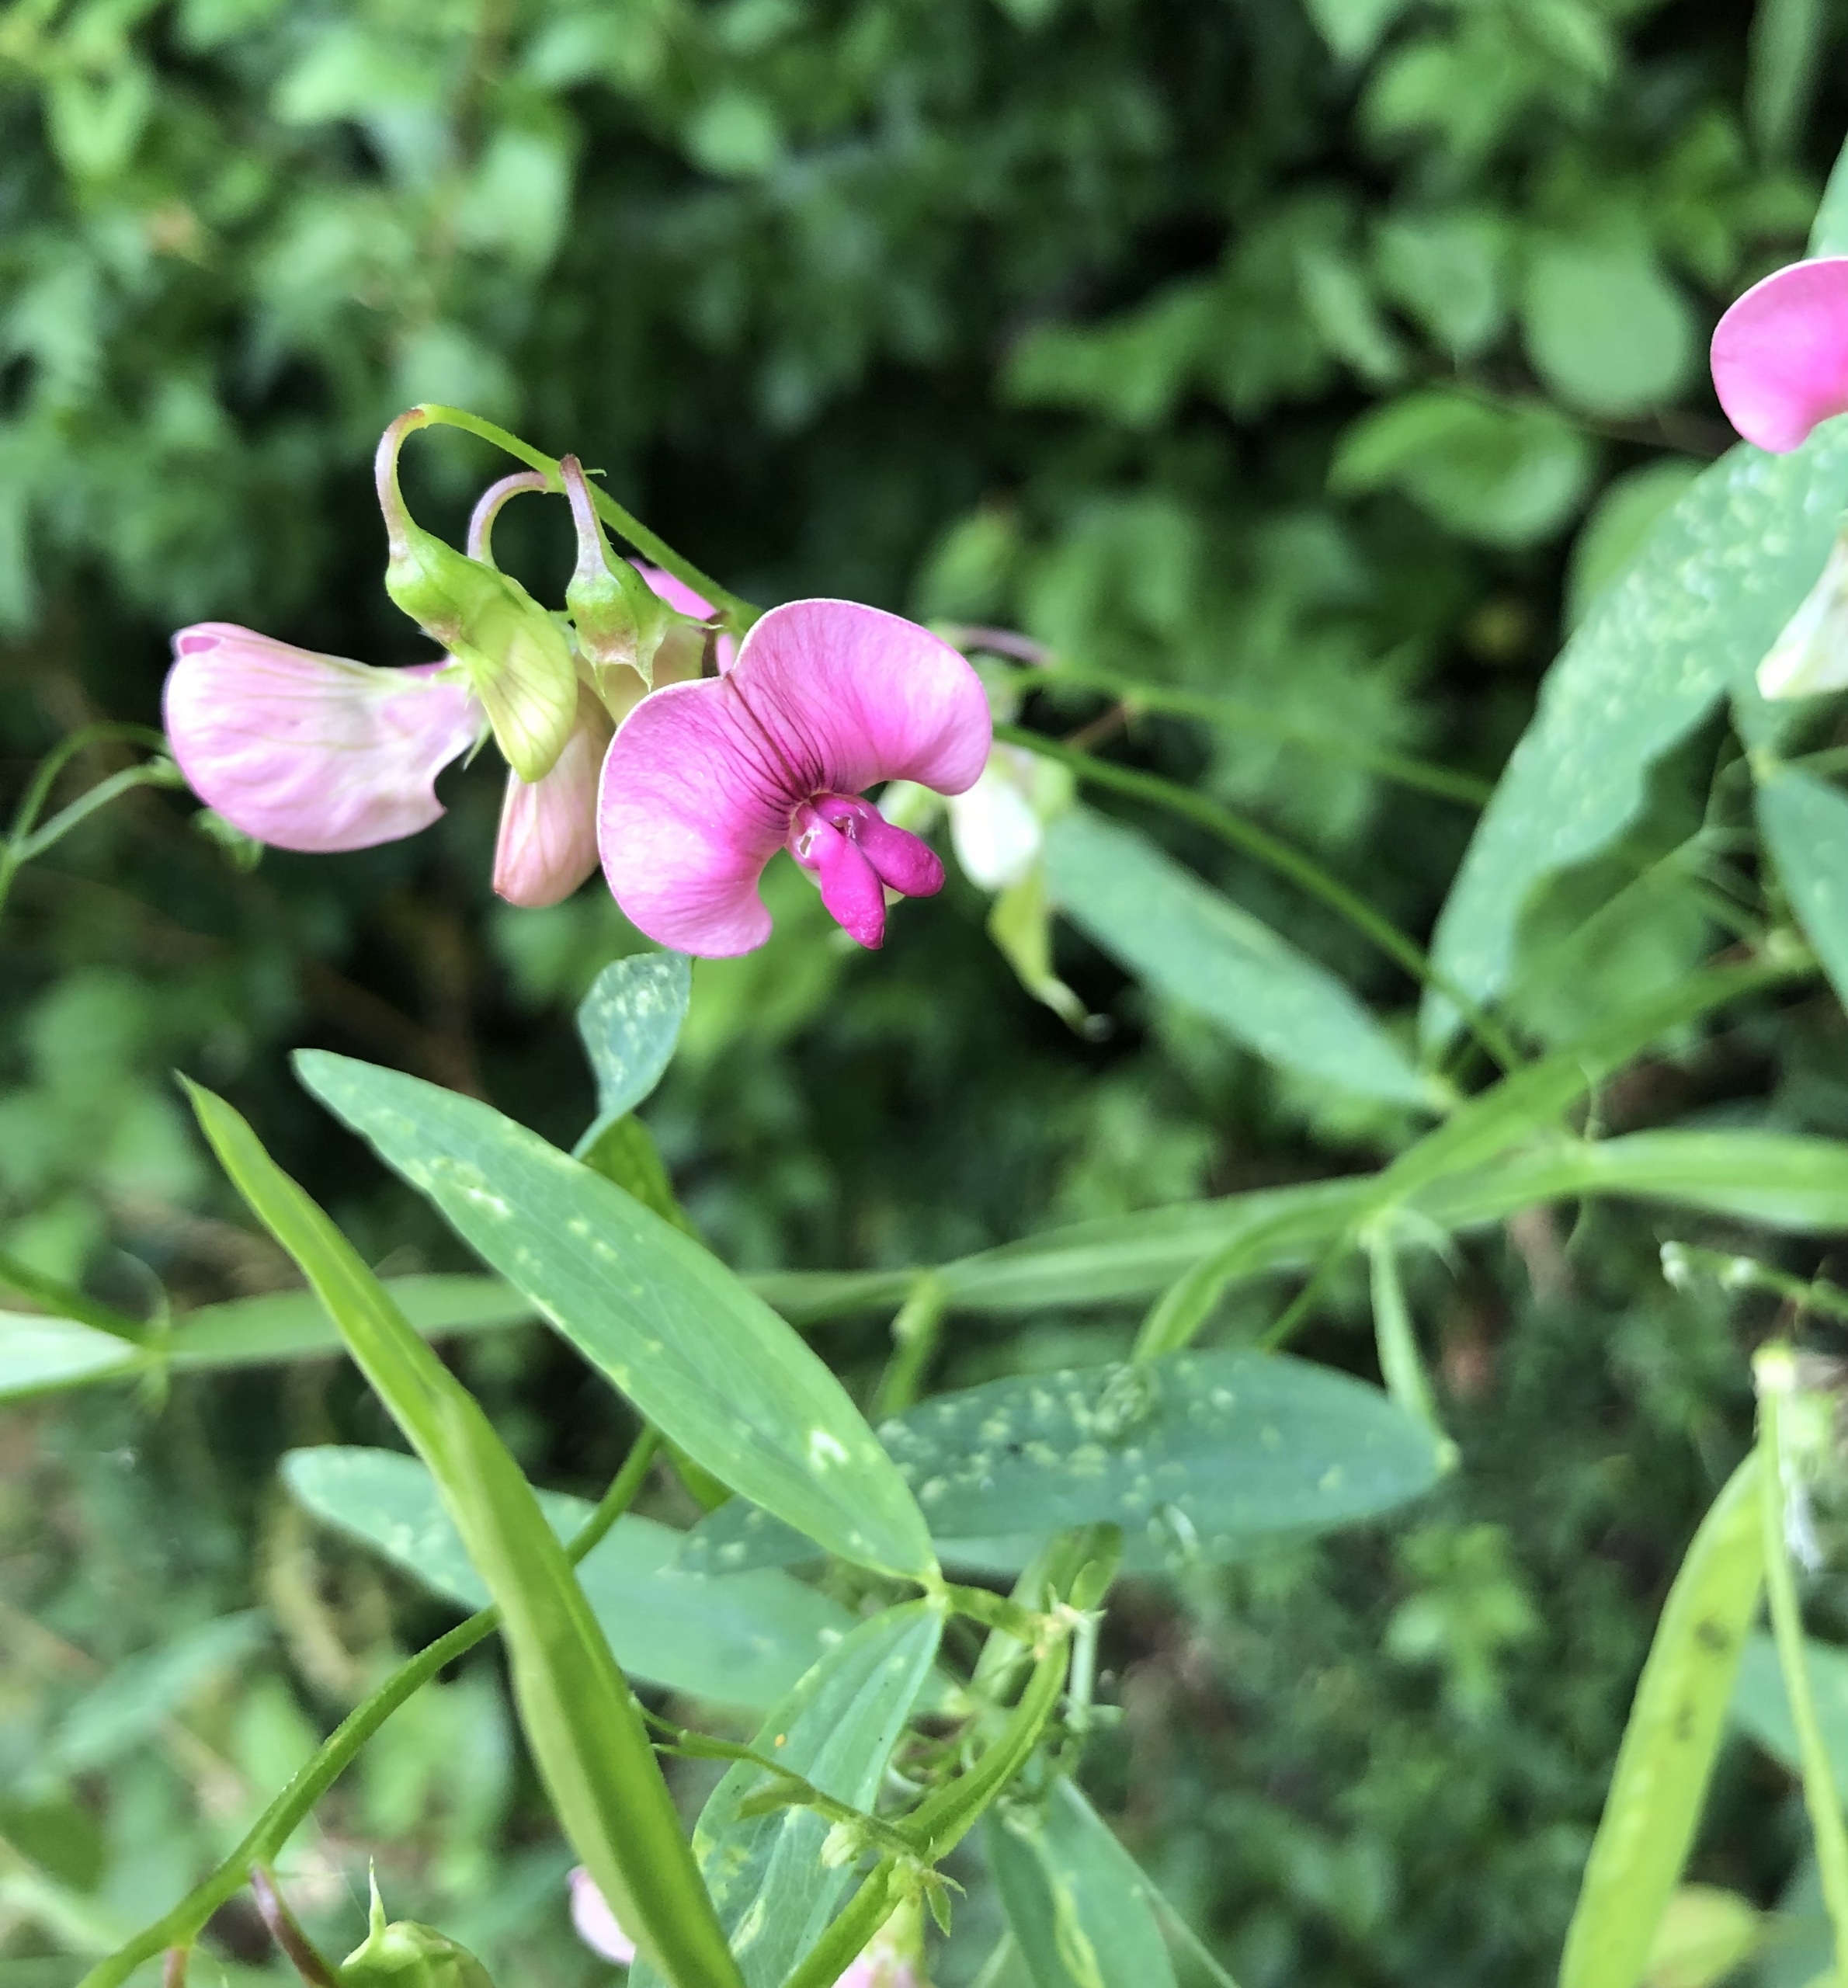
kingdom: Plantae
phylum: Tracheophyta
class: Magnoliopsida
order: Fabales
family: Fabaceae
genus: Lathyrus
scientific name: Lathyrus latifolius
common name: Flerårig ærteblomst
